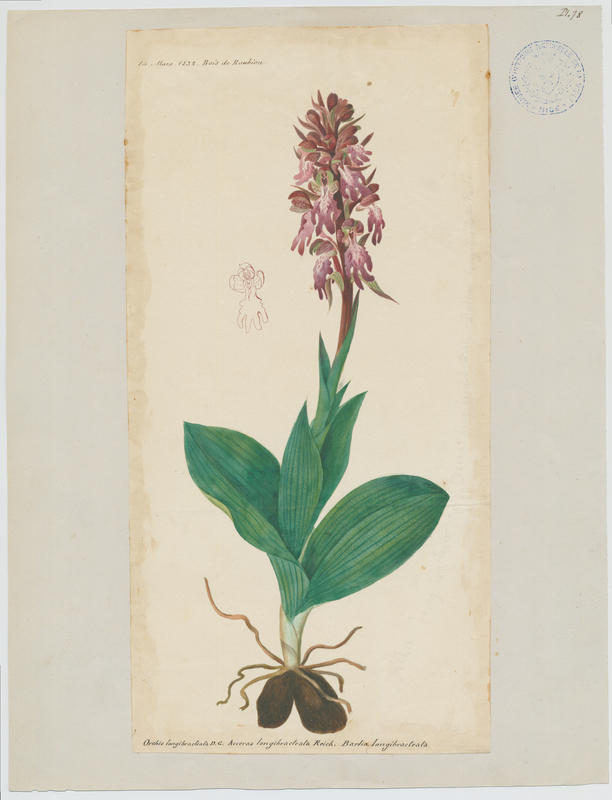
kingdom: Plantae
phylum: Tracheophyta
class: Liliopsida
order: Asparagales
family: Orchidaceae
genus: Himantoglossum
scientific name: Himantoglossum robertianum
